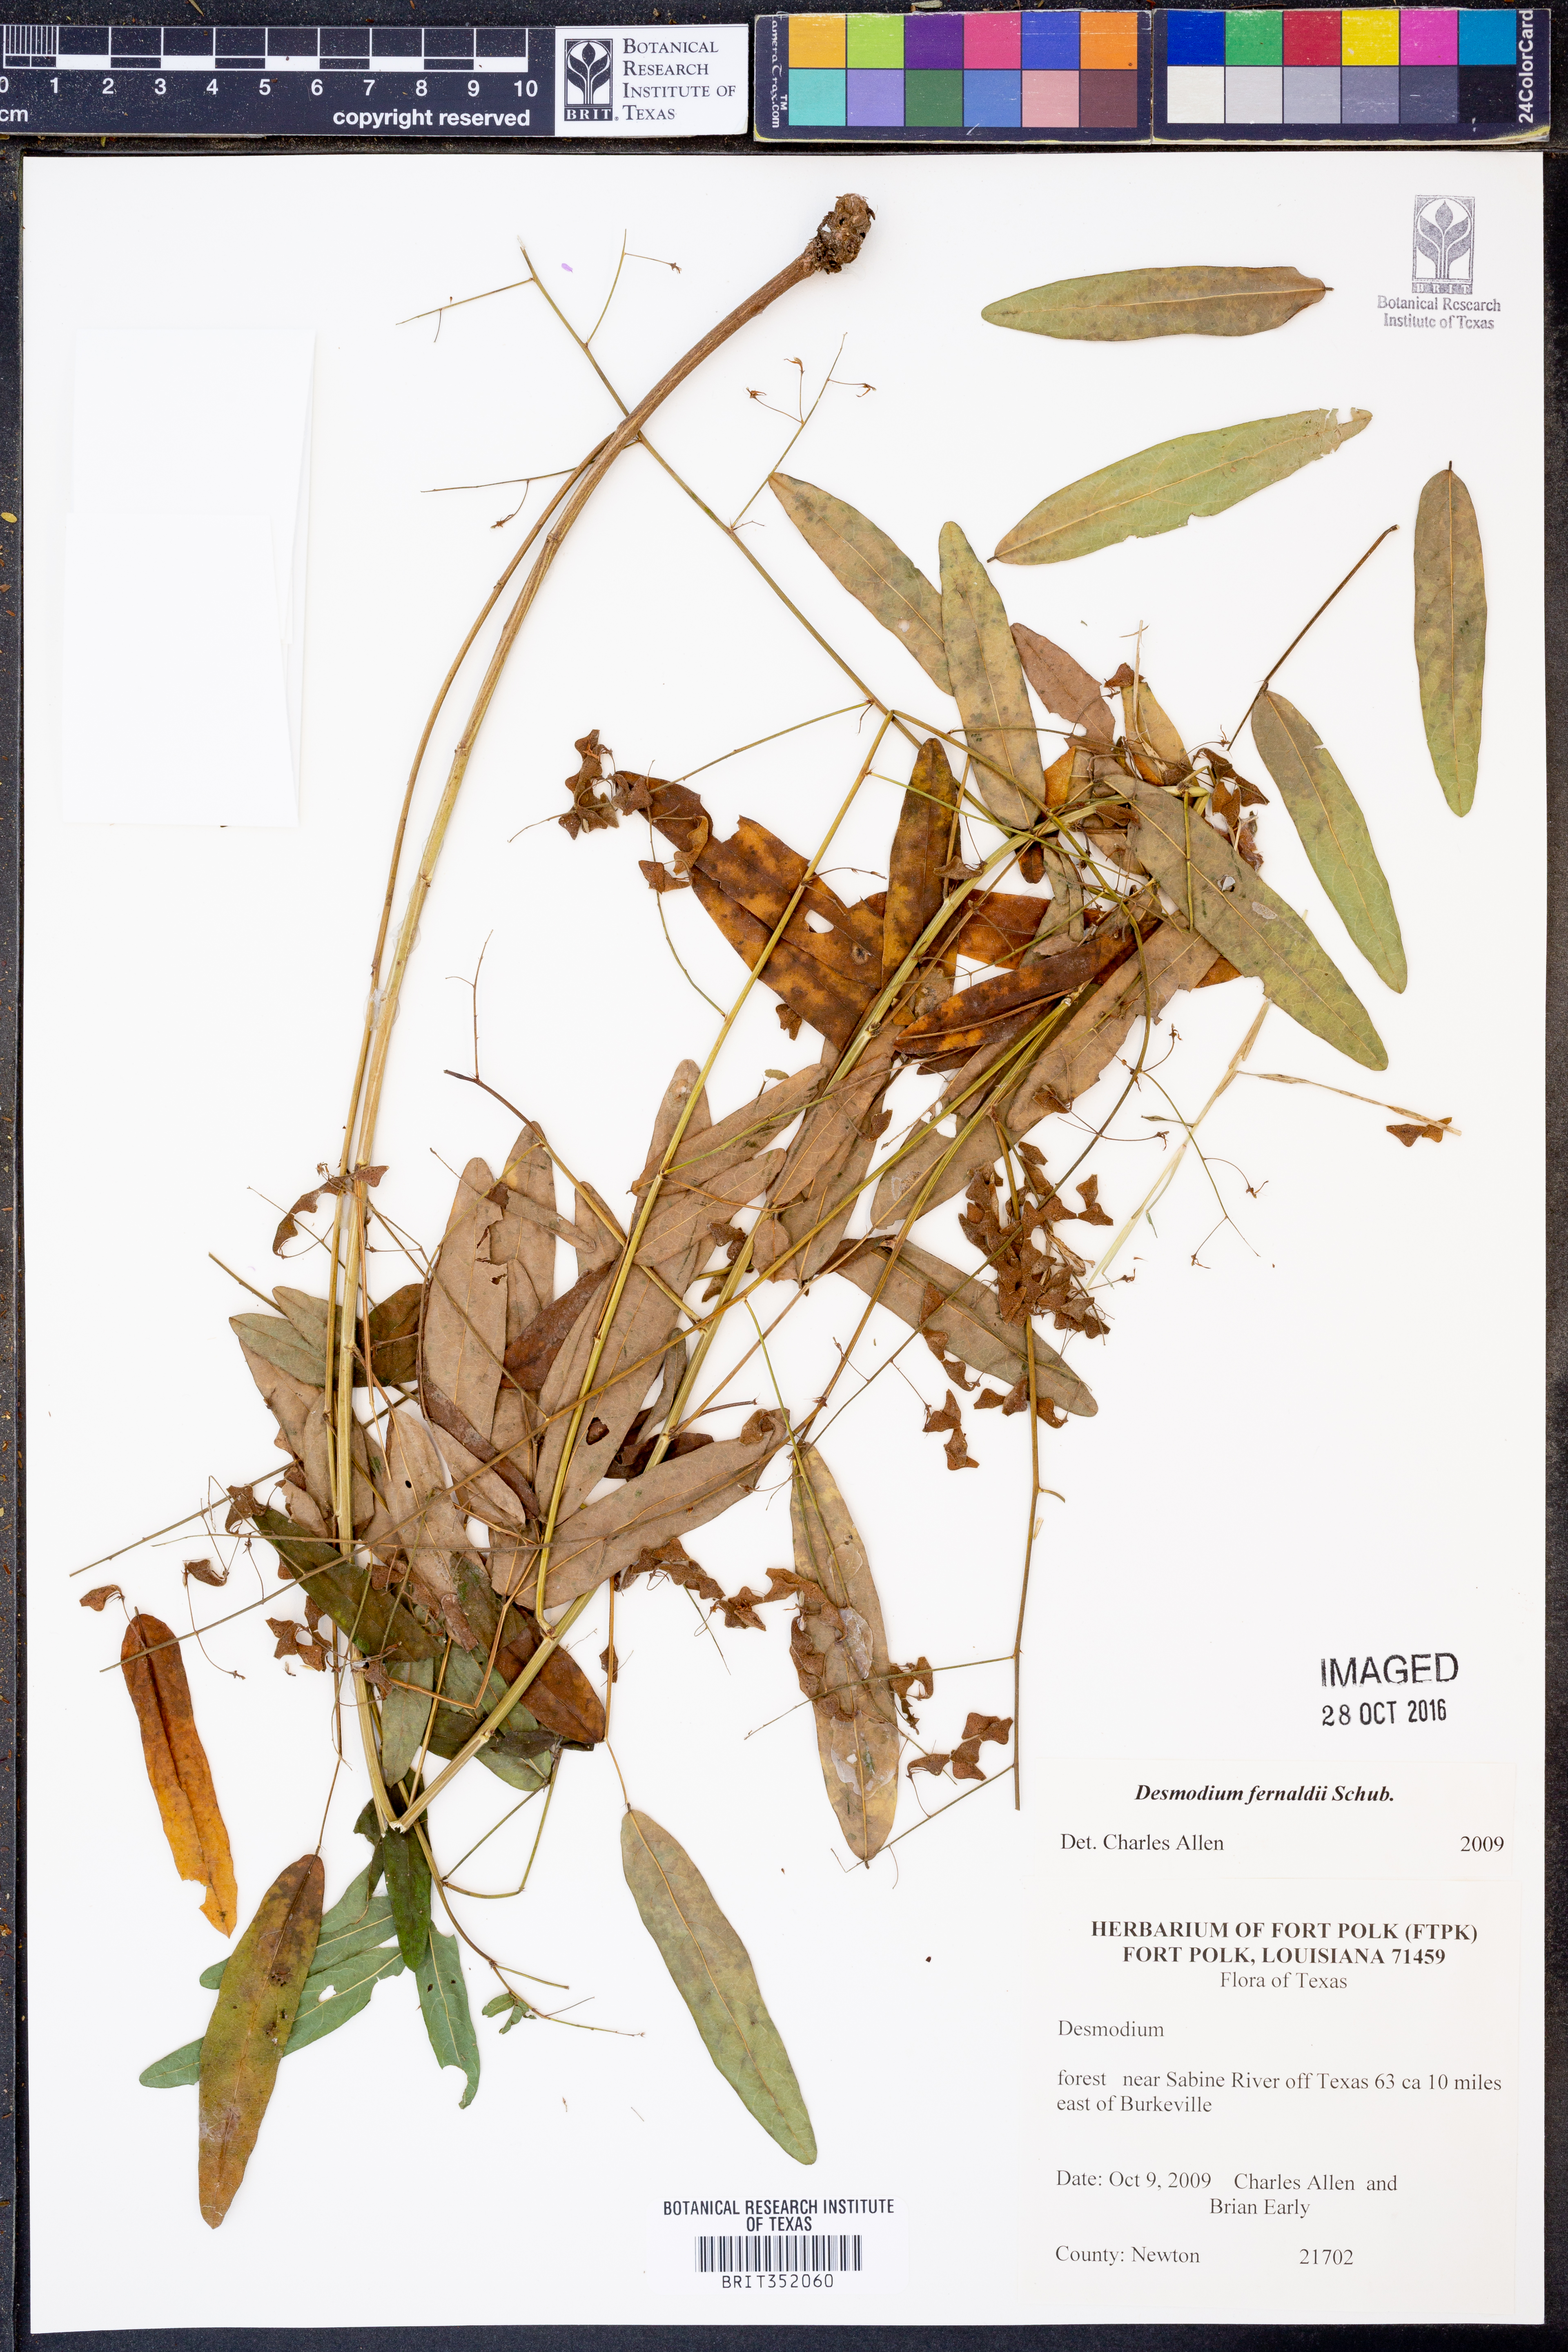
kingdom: Plantae
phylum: Tracheophyta
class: Magnoliopsida
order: Fabales
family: Fabaceae
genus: Desmodium
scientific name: Desmodium fernaldii
